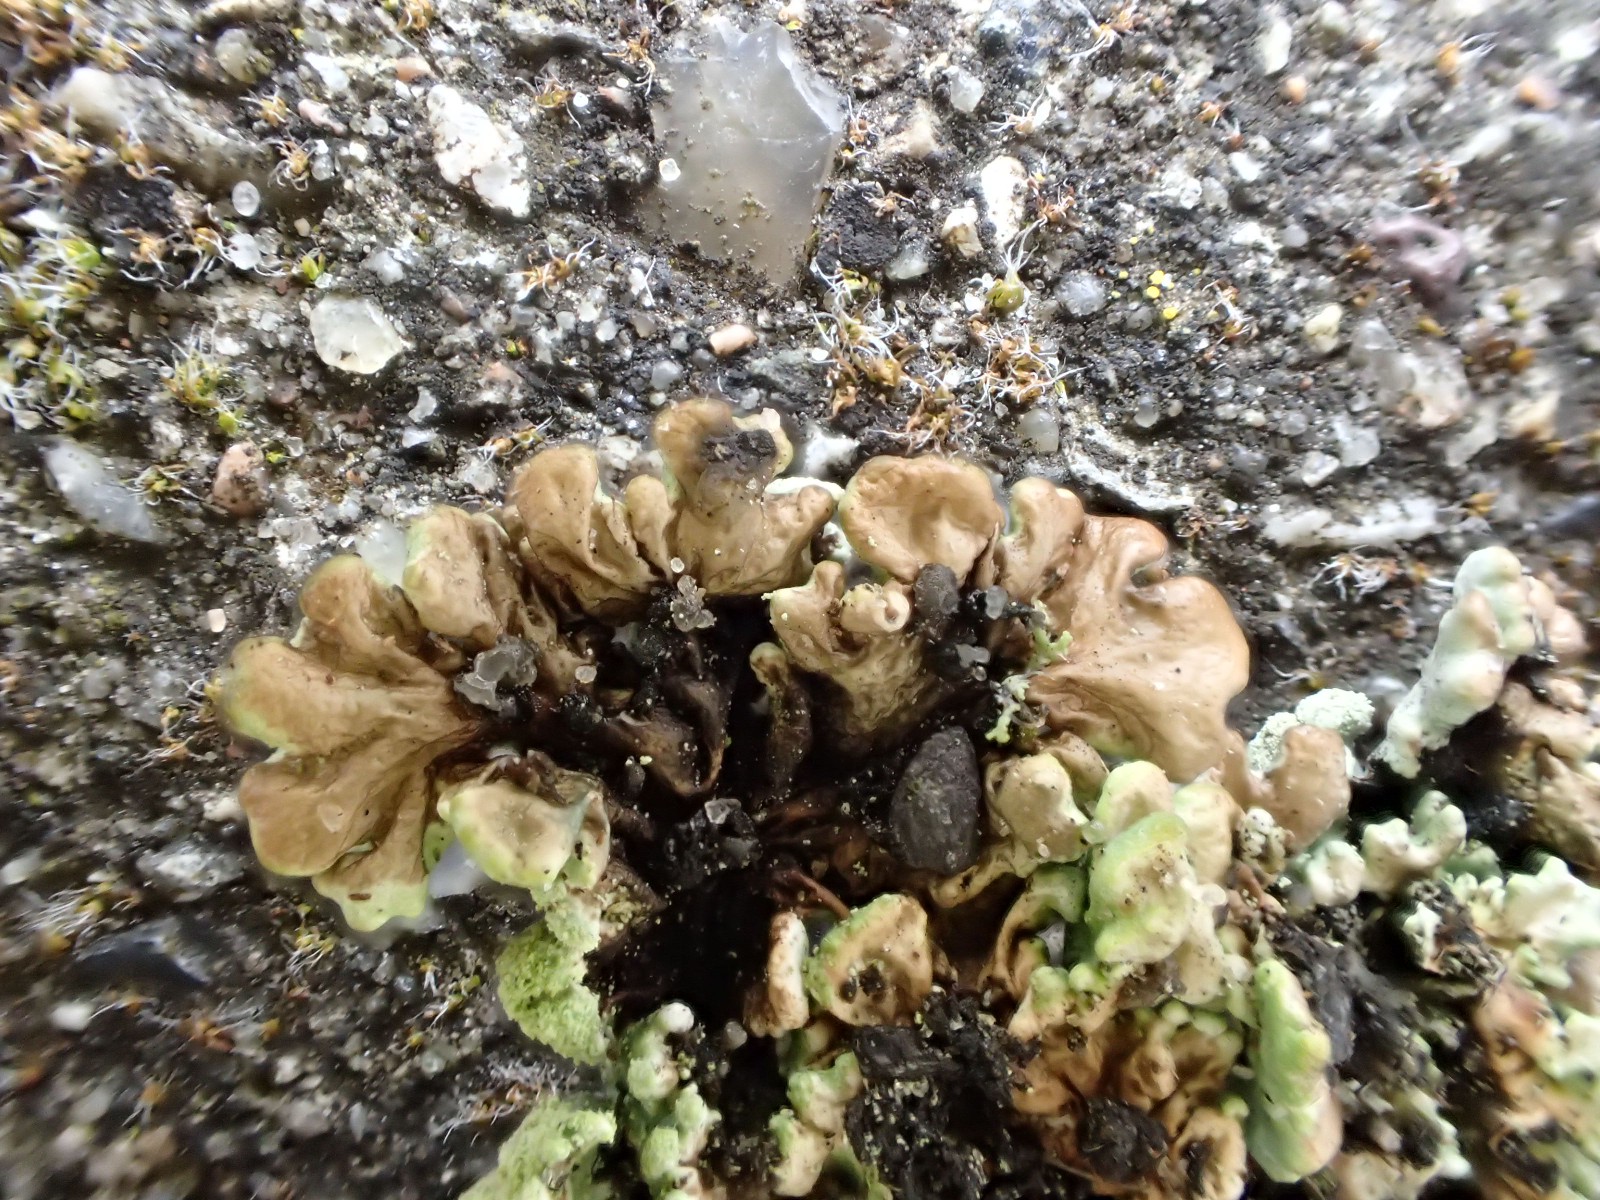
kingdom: Fungi
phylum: Ascomycota
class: Lecanoromycetes
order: Lecanorales
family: Parmeliaceae
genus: Hypogymnia
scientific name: Hypogymnia physodes
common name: almindelig kvistlav
